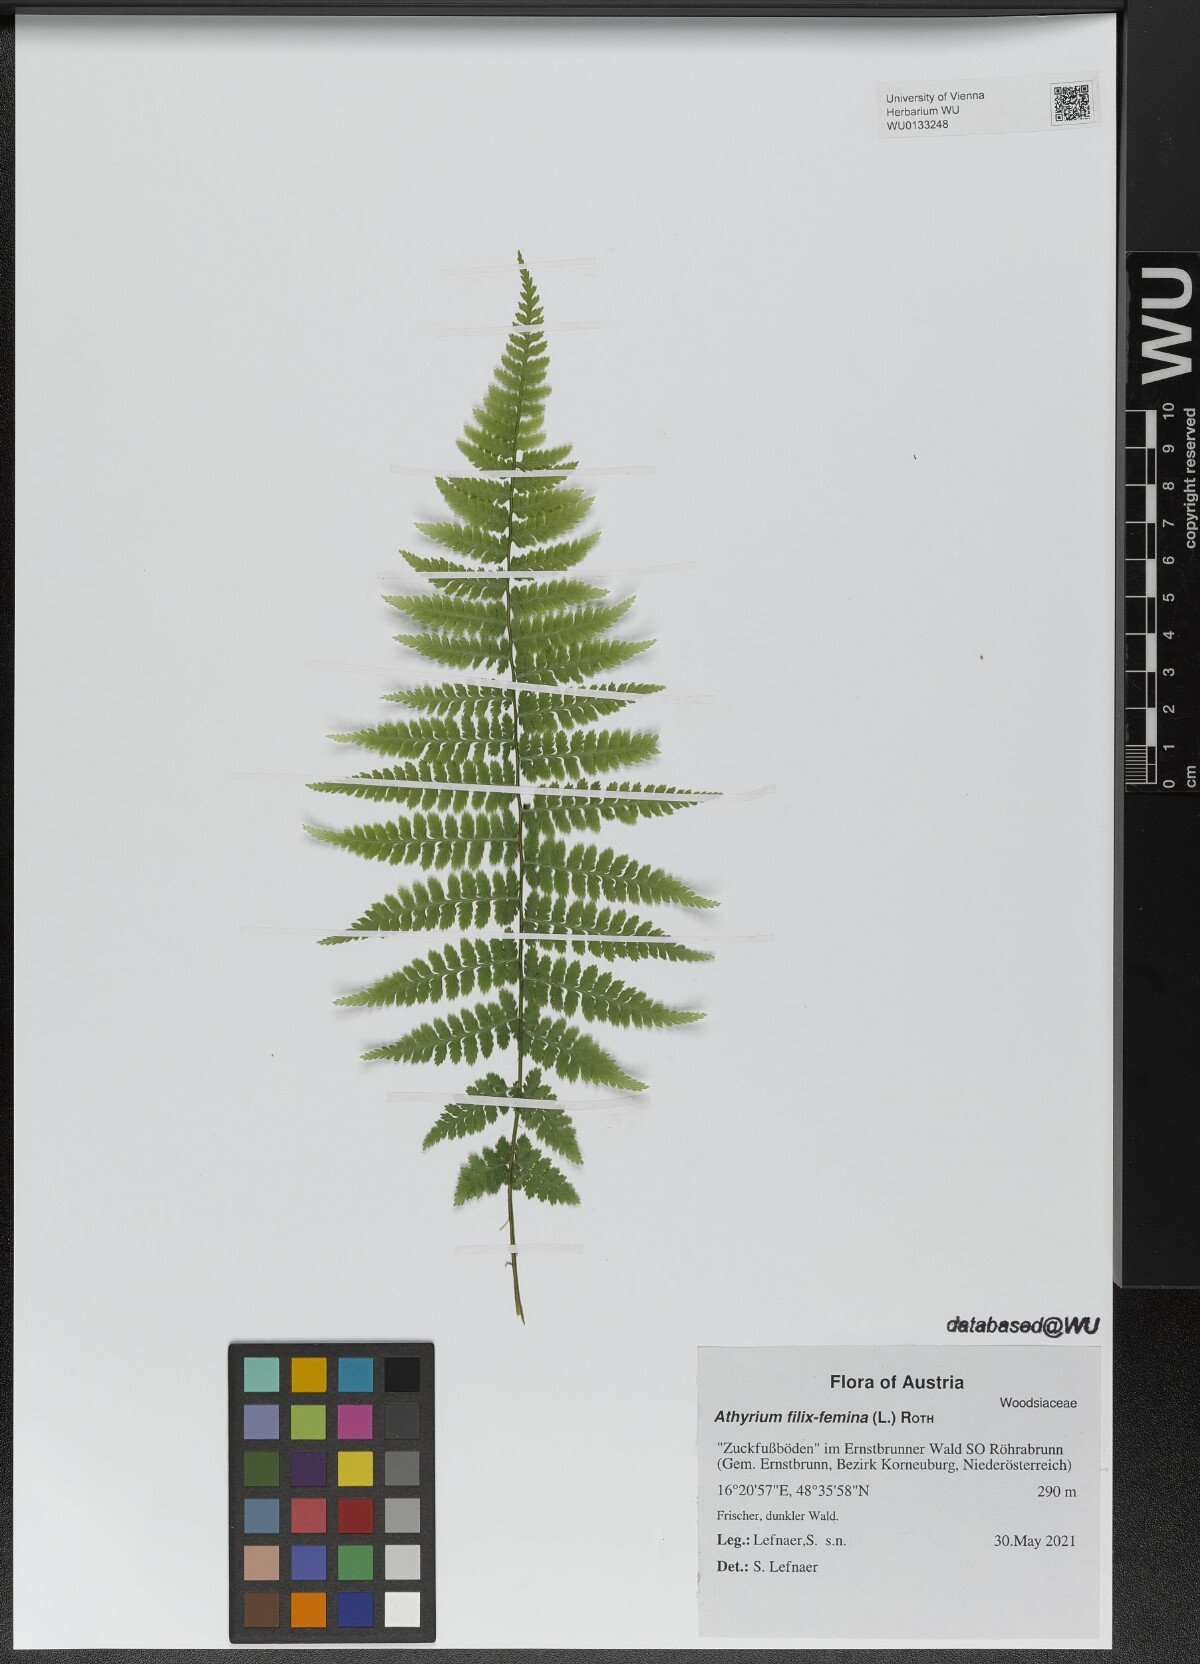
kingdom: Plantae
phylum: Tracheophyta
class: Polypodiopsida
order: Polypodiales
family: Athyriaceae
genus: Athyrium
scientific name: Athyrium filix-femina
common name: Lady fern
